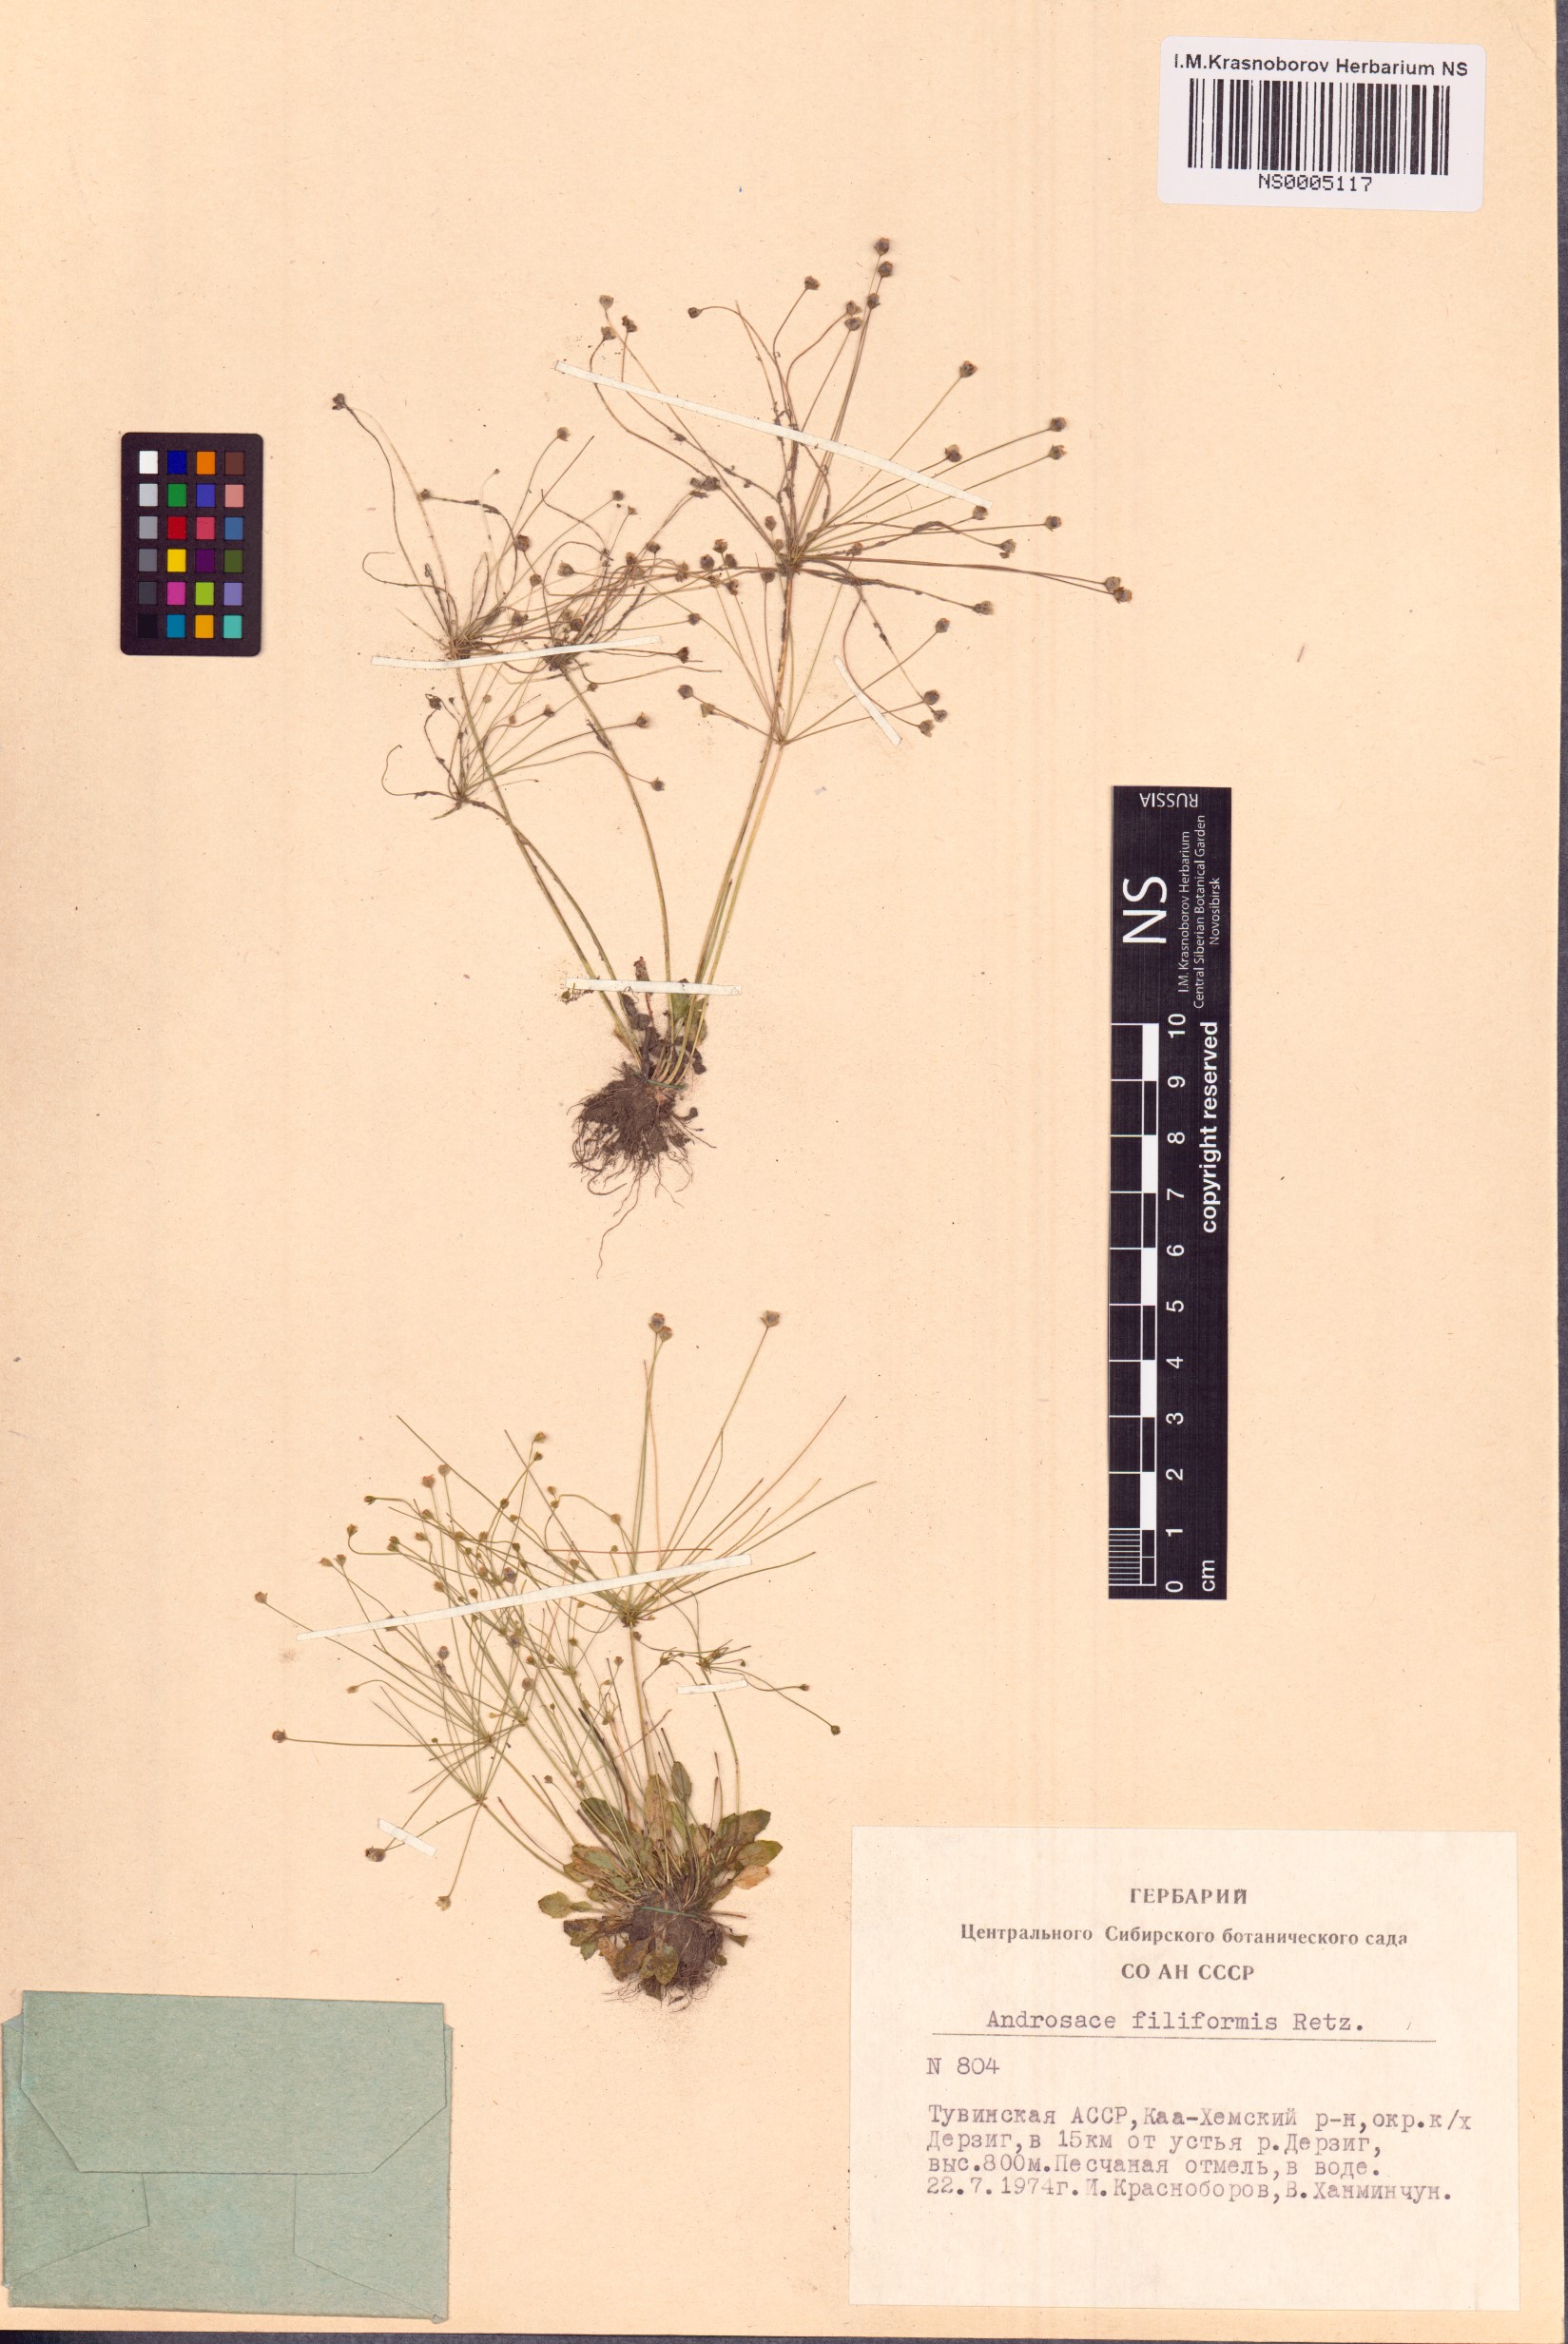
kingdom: Plantae
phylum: Tracheophyta
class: Magnoliopsida
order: Ericales
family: Primulaceae
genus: Androsace
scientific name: Androsace filiformis
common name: Filiform rock jasmine
